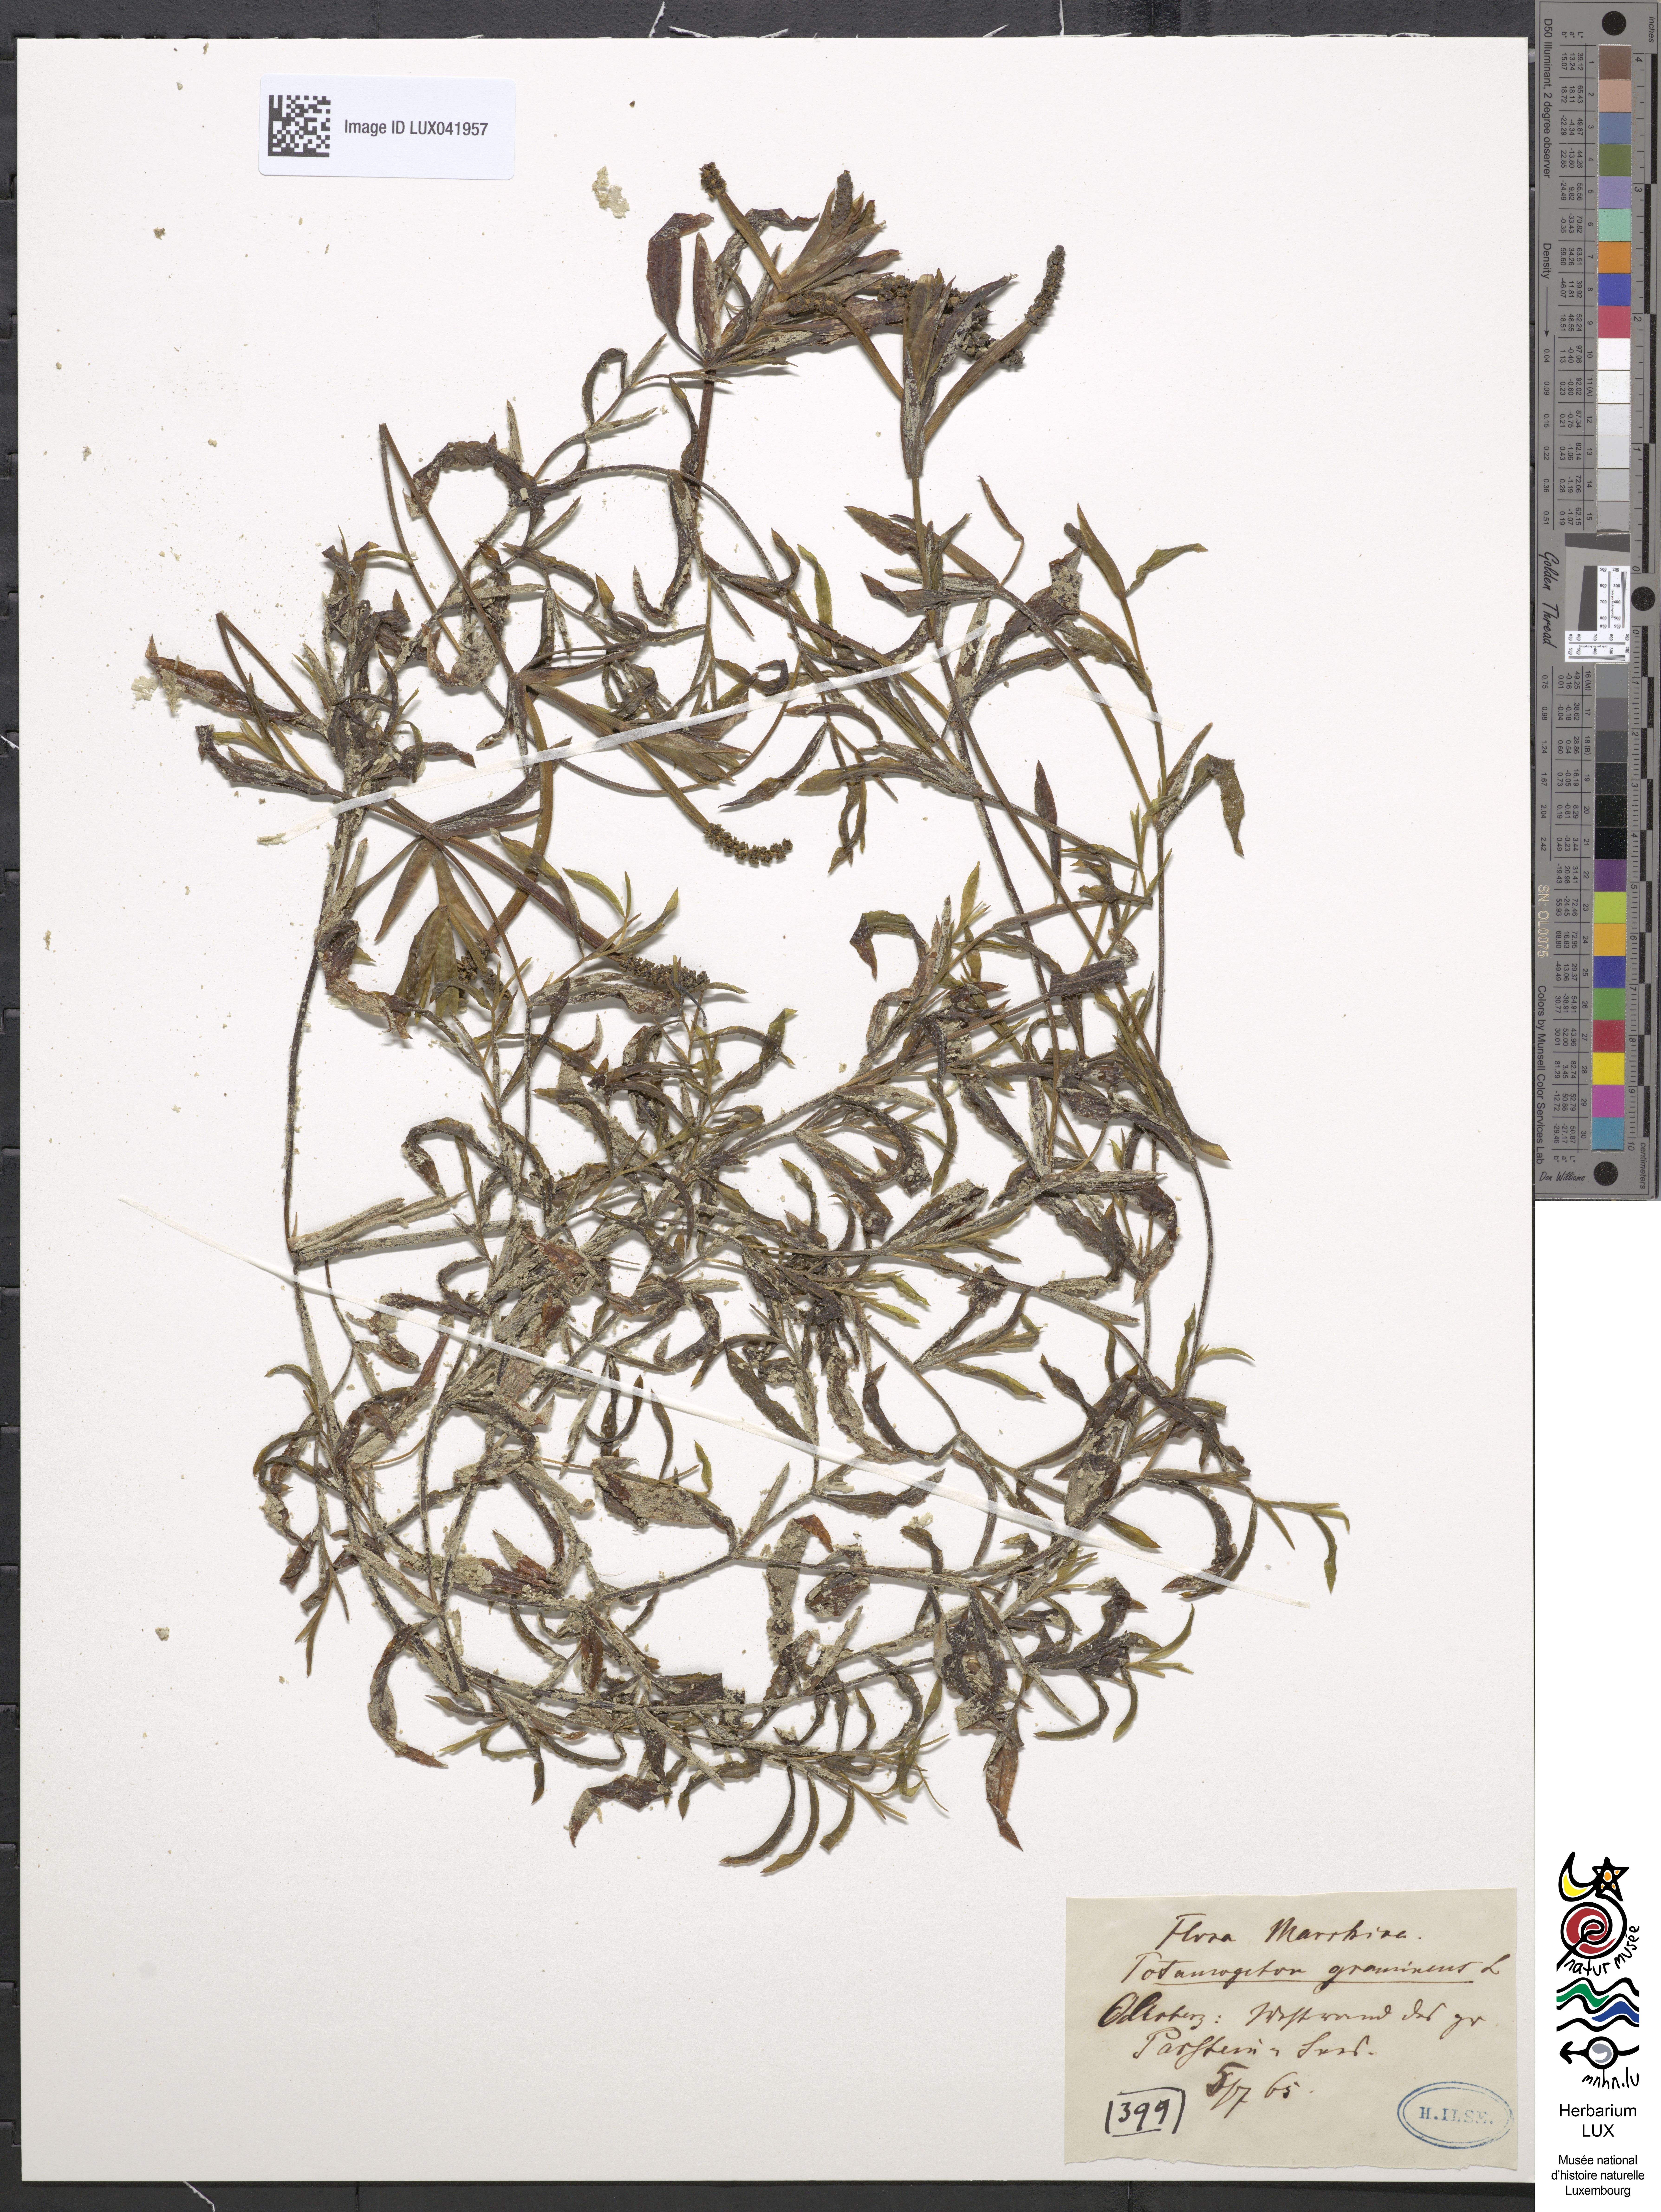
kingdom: Plantae
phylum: Tracheophyta
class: Liliopsida
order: Alismatales
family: Potamogetonaceae
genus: Potamogeton
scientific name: Potamogeton gramineus
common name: Various-leaved pondweed
